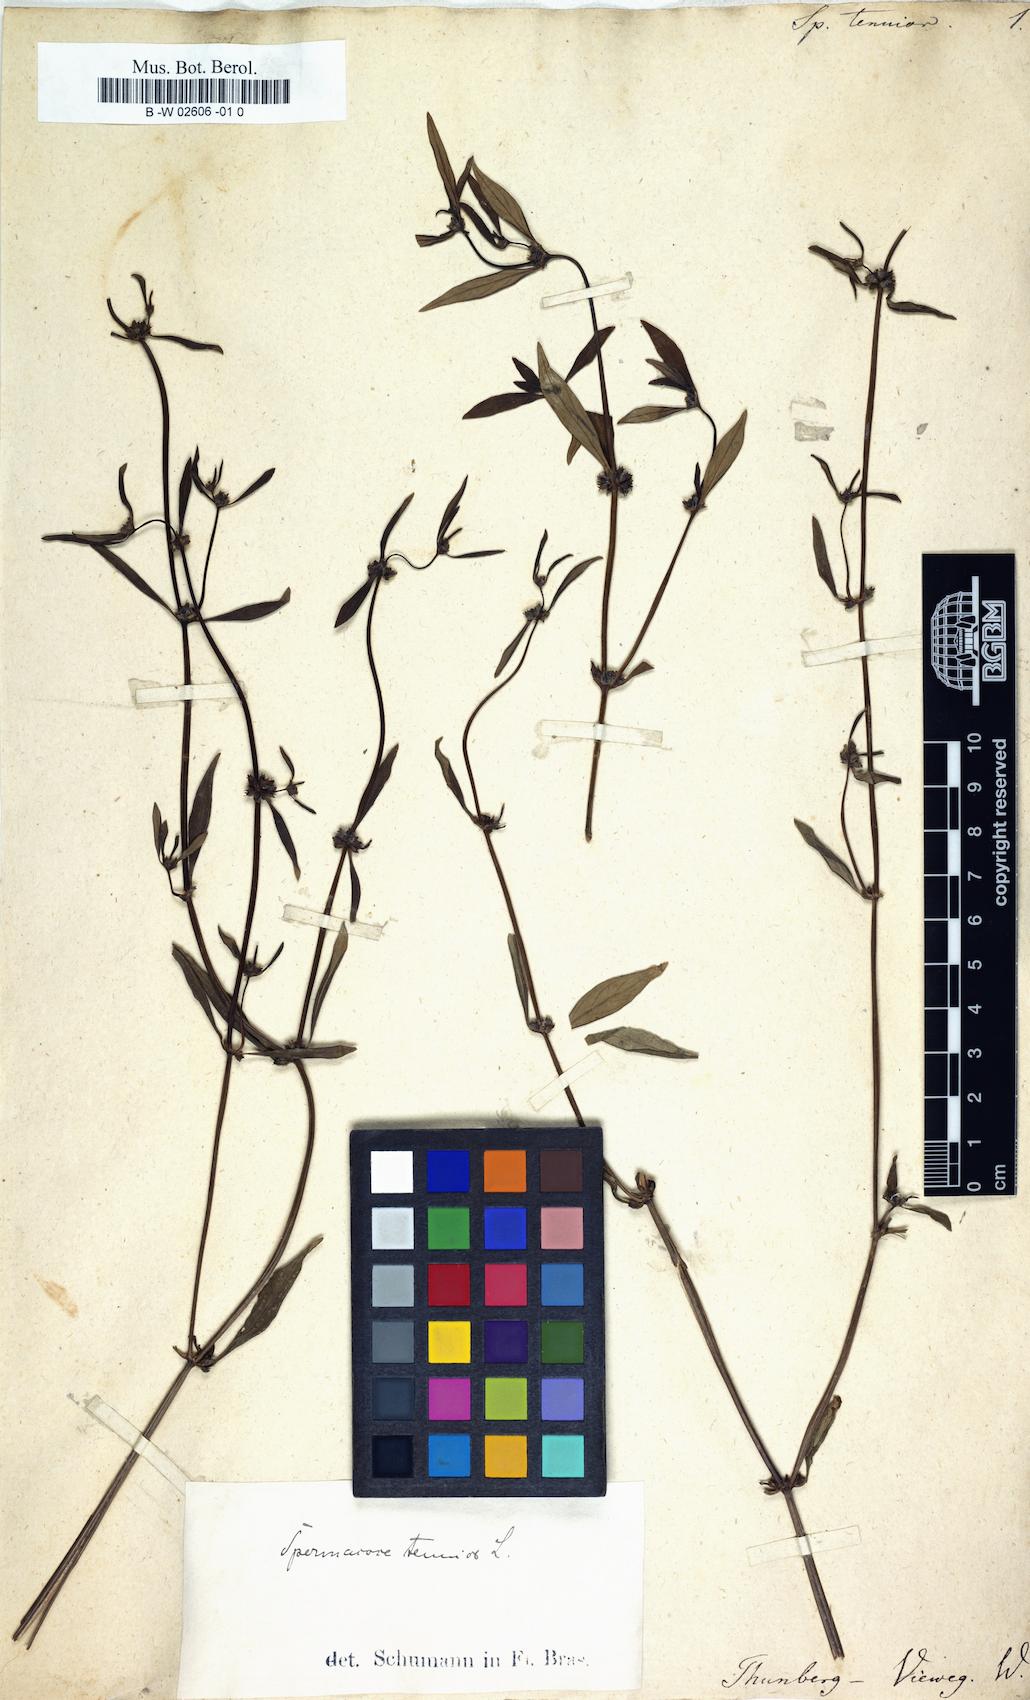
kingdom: Plantae
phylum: Tracheophyta
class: Magnoliopsida
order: Gentianales
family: Rubiaceae
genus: Spermacoce
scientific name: Spermacoce tenuior
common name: River false buttonweed
